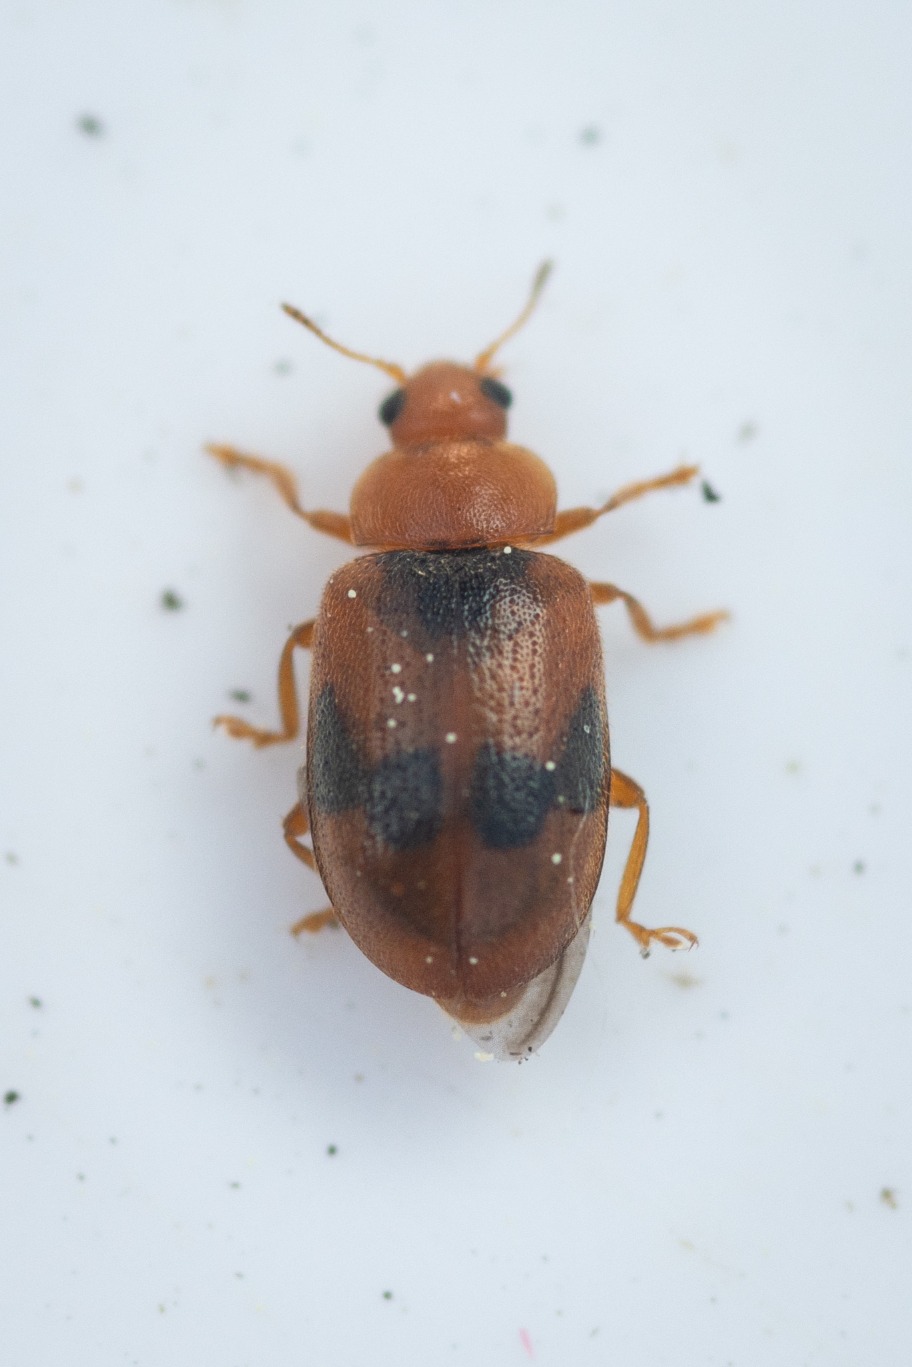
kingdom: Animalia
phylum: Arthropoda
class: Insecta
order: Coleoptera
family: Coccinellidae
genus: Coccidula
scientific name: Coccidula scutellata
